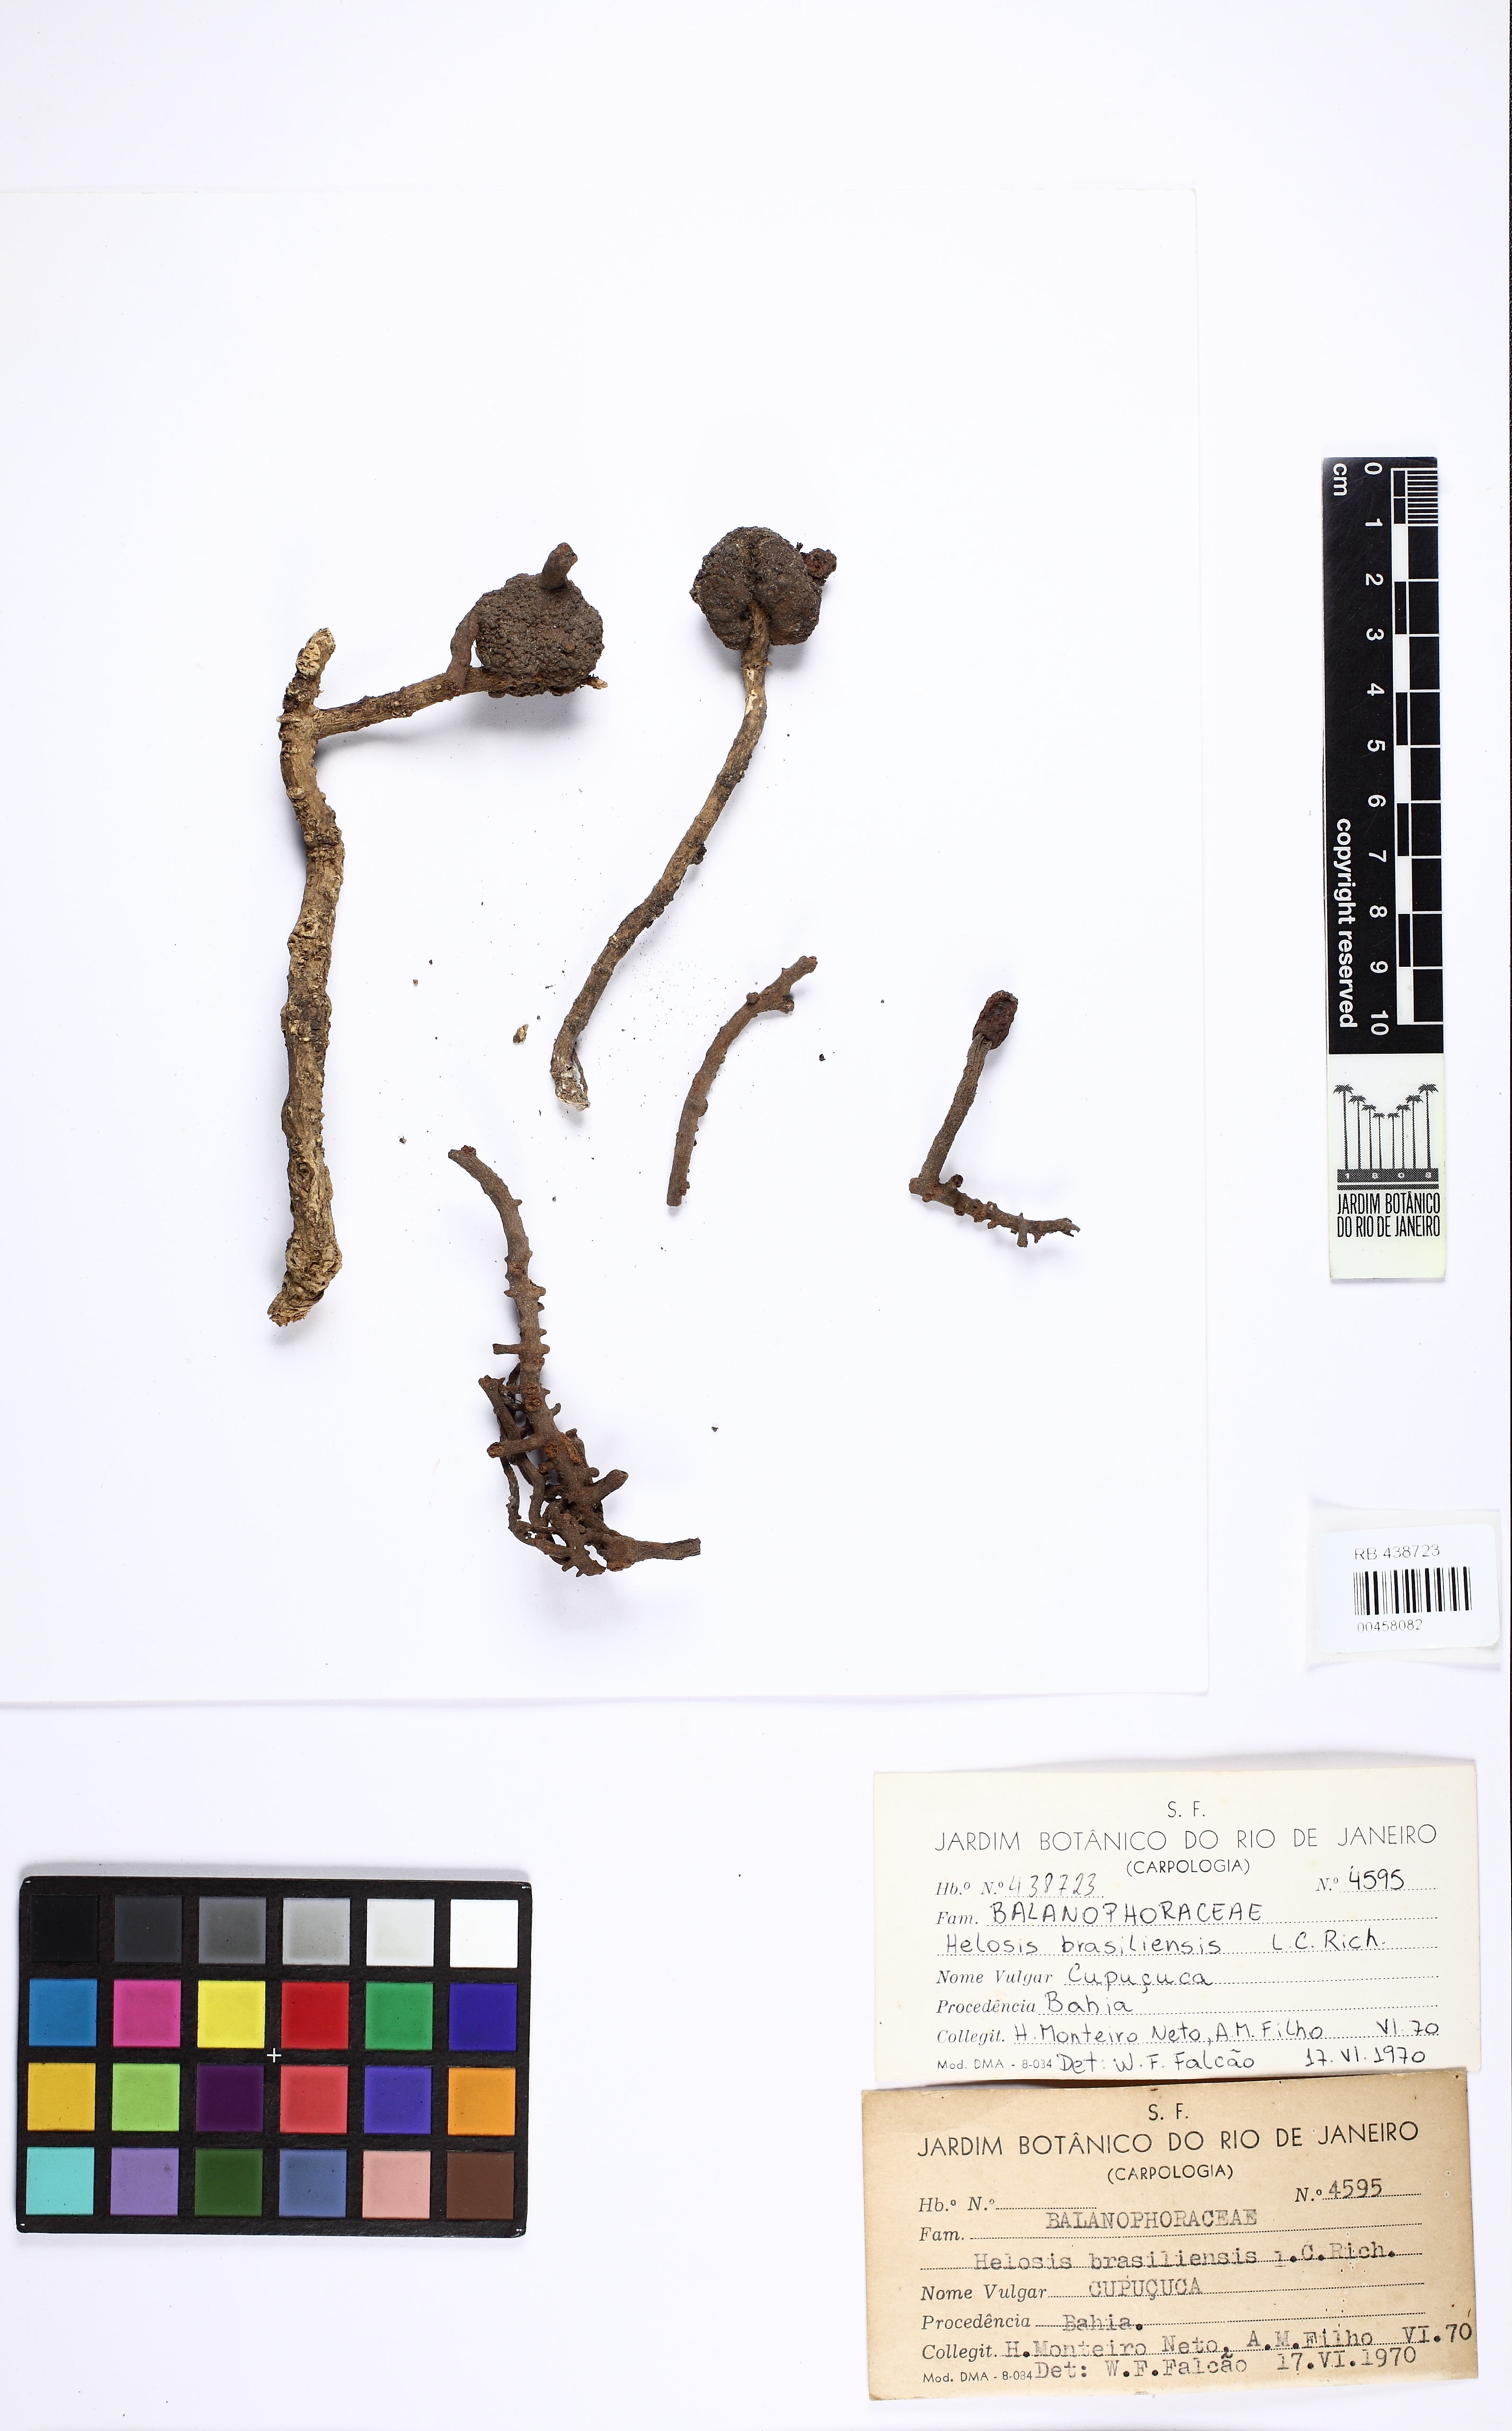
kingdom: Plantae
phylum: Tracheophyta
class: Magnoliopsida
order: Santalales
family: Balanophoraceae
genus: Helosis
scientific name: Helosis cayennensis
